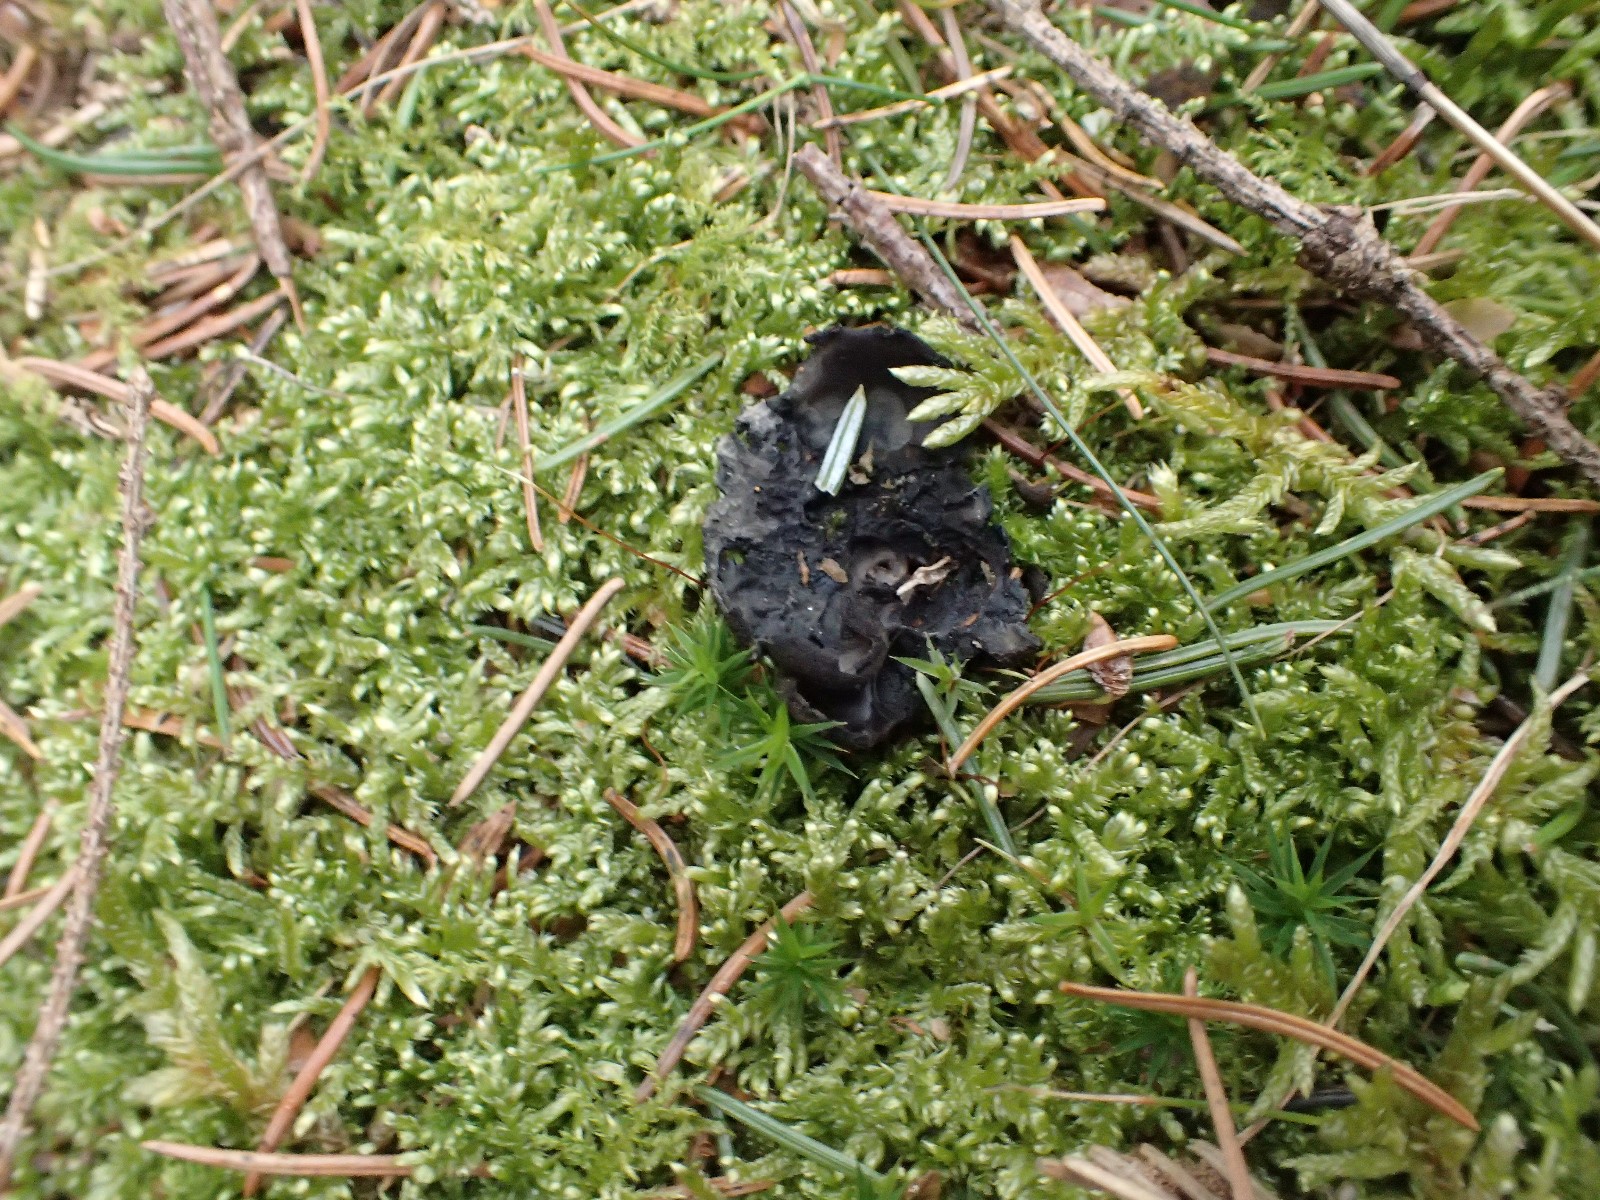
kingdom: Fungi
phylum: Ascomycota
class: Pezizomycetes
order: Pezizales
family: Sarcosomataceae
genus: Pseudoplectania
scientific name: Pseudoplectania nigrella
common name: almindelig sortbæger
